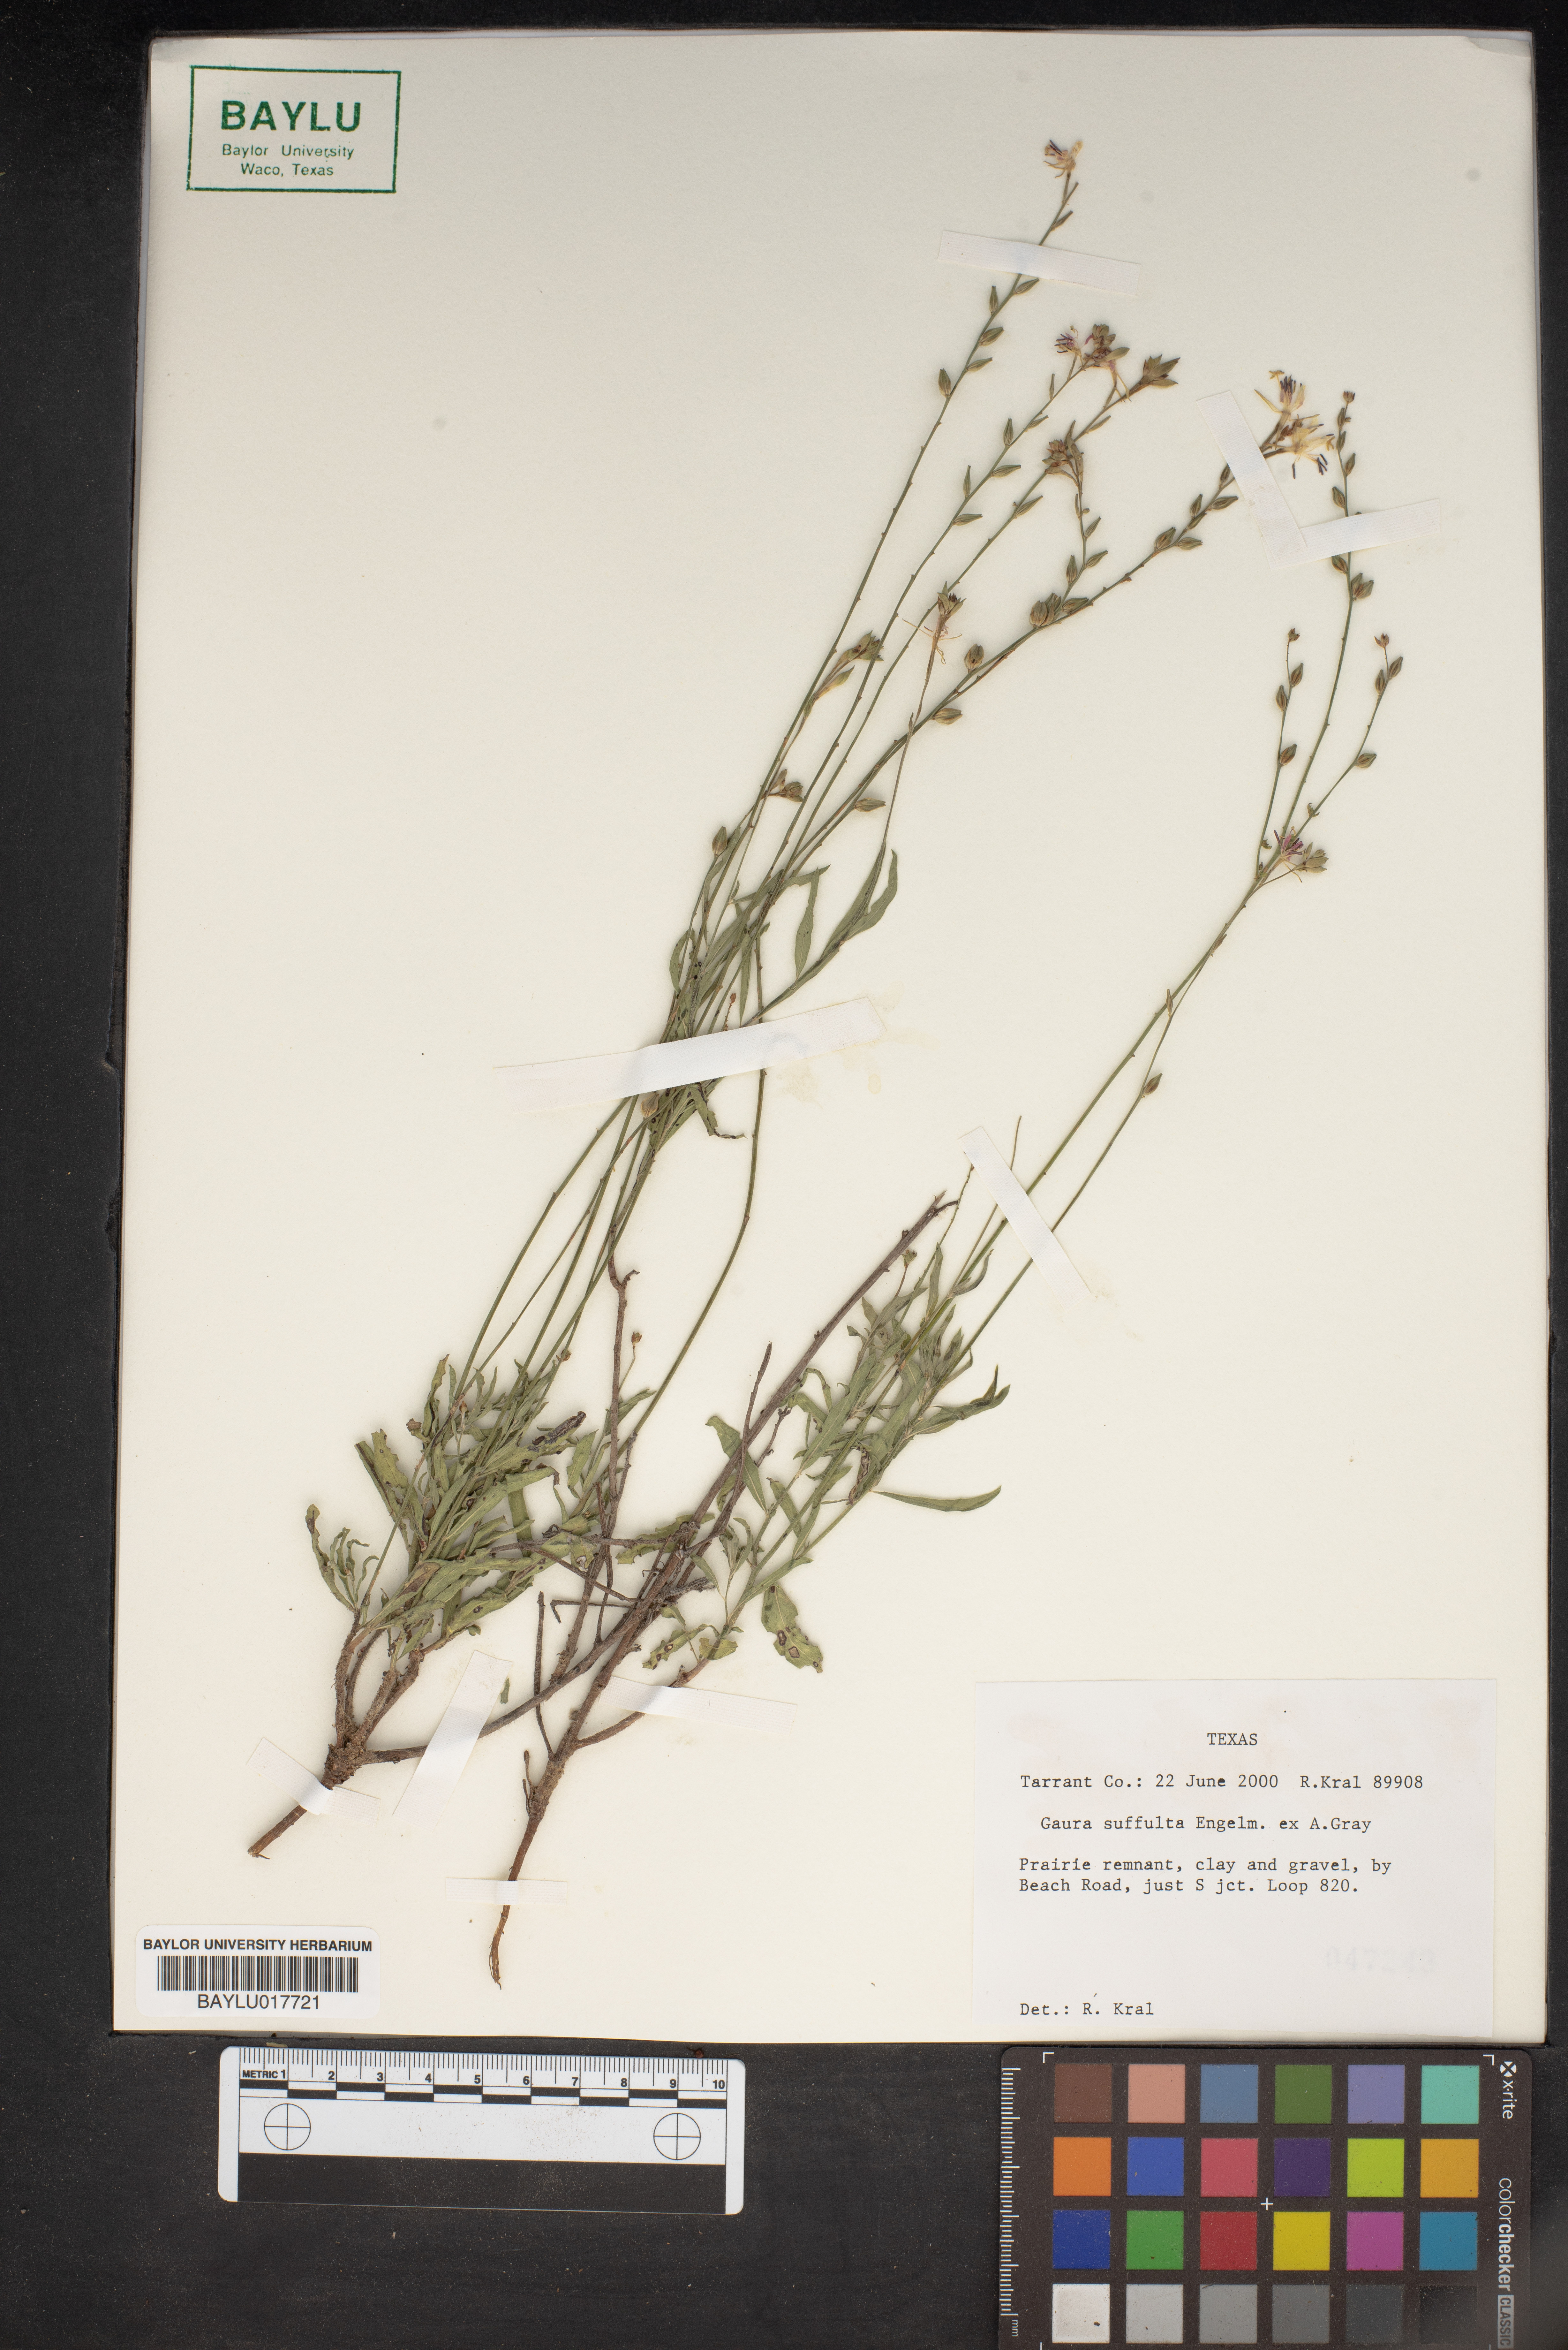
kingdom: Plantae
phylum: Tracheophyta
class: Magnoliopsida
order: Myrtales
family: Onagraceae
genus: Oenothera
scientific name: Oenothera Gaura suffulta
